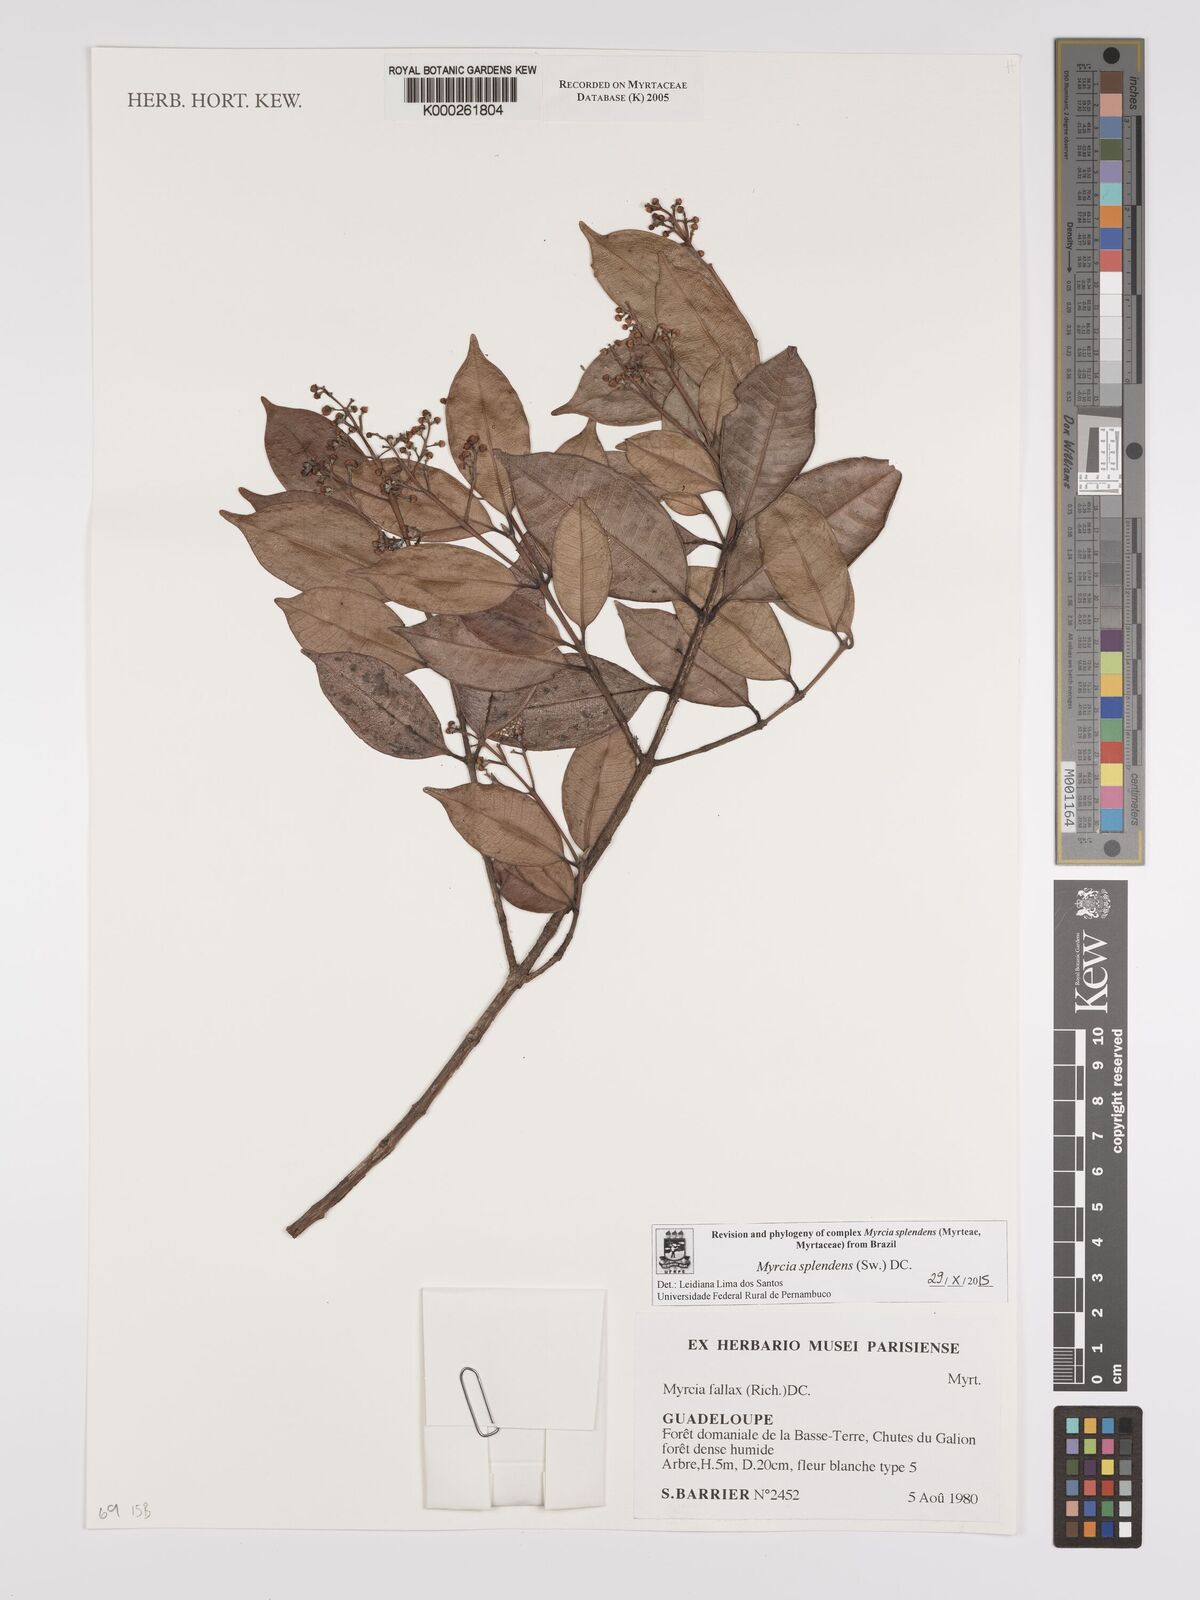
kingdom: Plantae
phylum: Tracheophyta
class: Magnoliopsida
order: Myrtales
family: Myrtaceae
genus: Myrcia
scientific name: Myrcia splendens
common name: Surinam cherry
